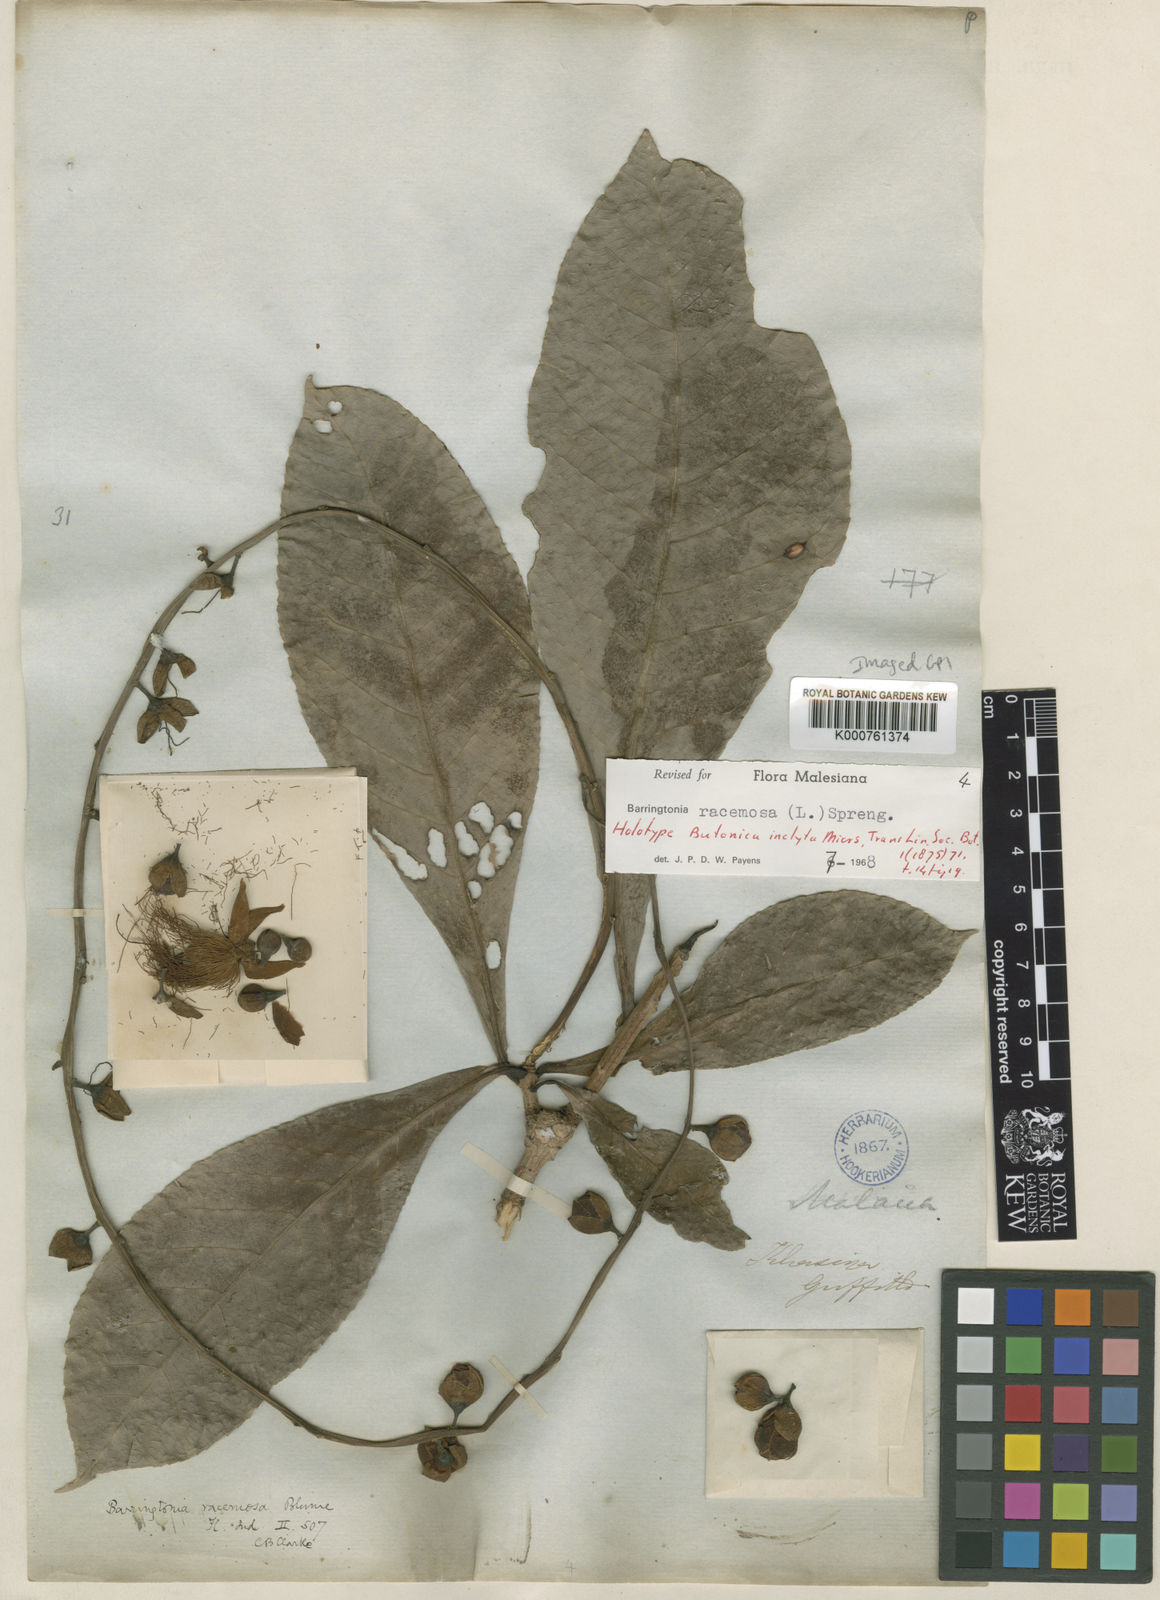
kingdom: Plantae
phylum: Tracheophyta
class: Magnoliopsida
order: Ericales
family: Lecythidaceae
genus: Barringtonia
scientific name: Barringtonia racemosa
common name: Brackwater mangrove
